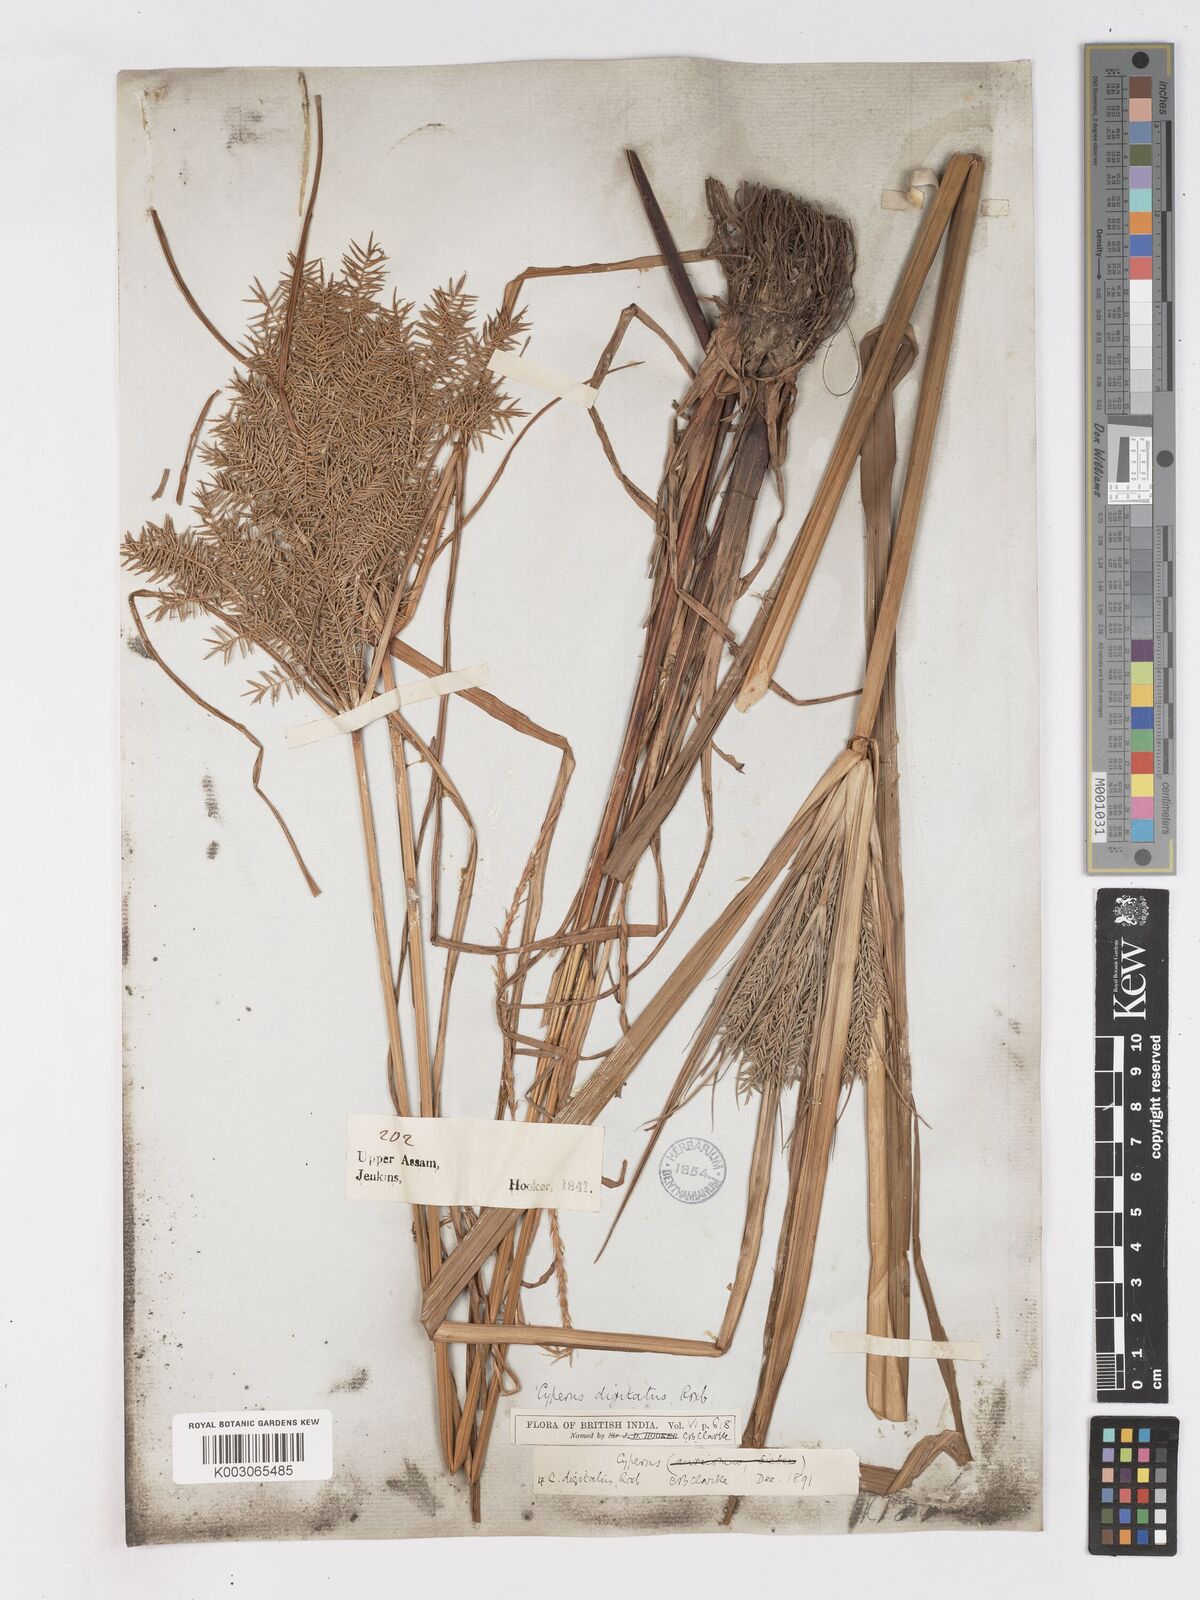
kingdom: Plantae
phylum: Tracheophyta
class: Liliopsida
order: Poales
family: Cyperaceae
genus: Cyperus
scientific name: Cyperus digitatus
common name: Finger flatsedge
